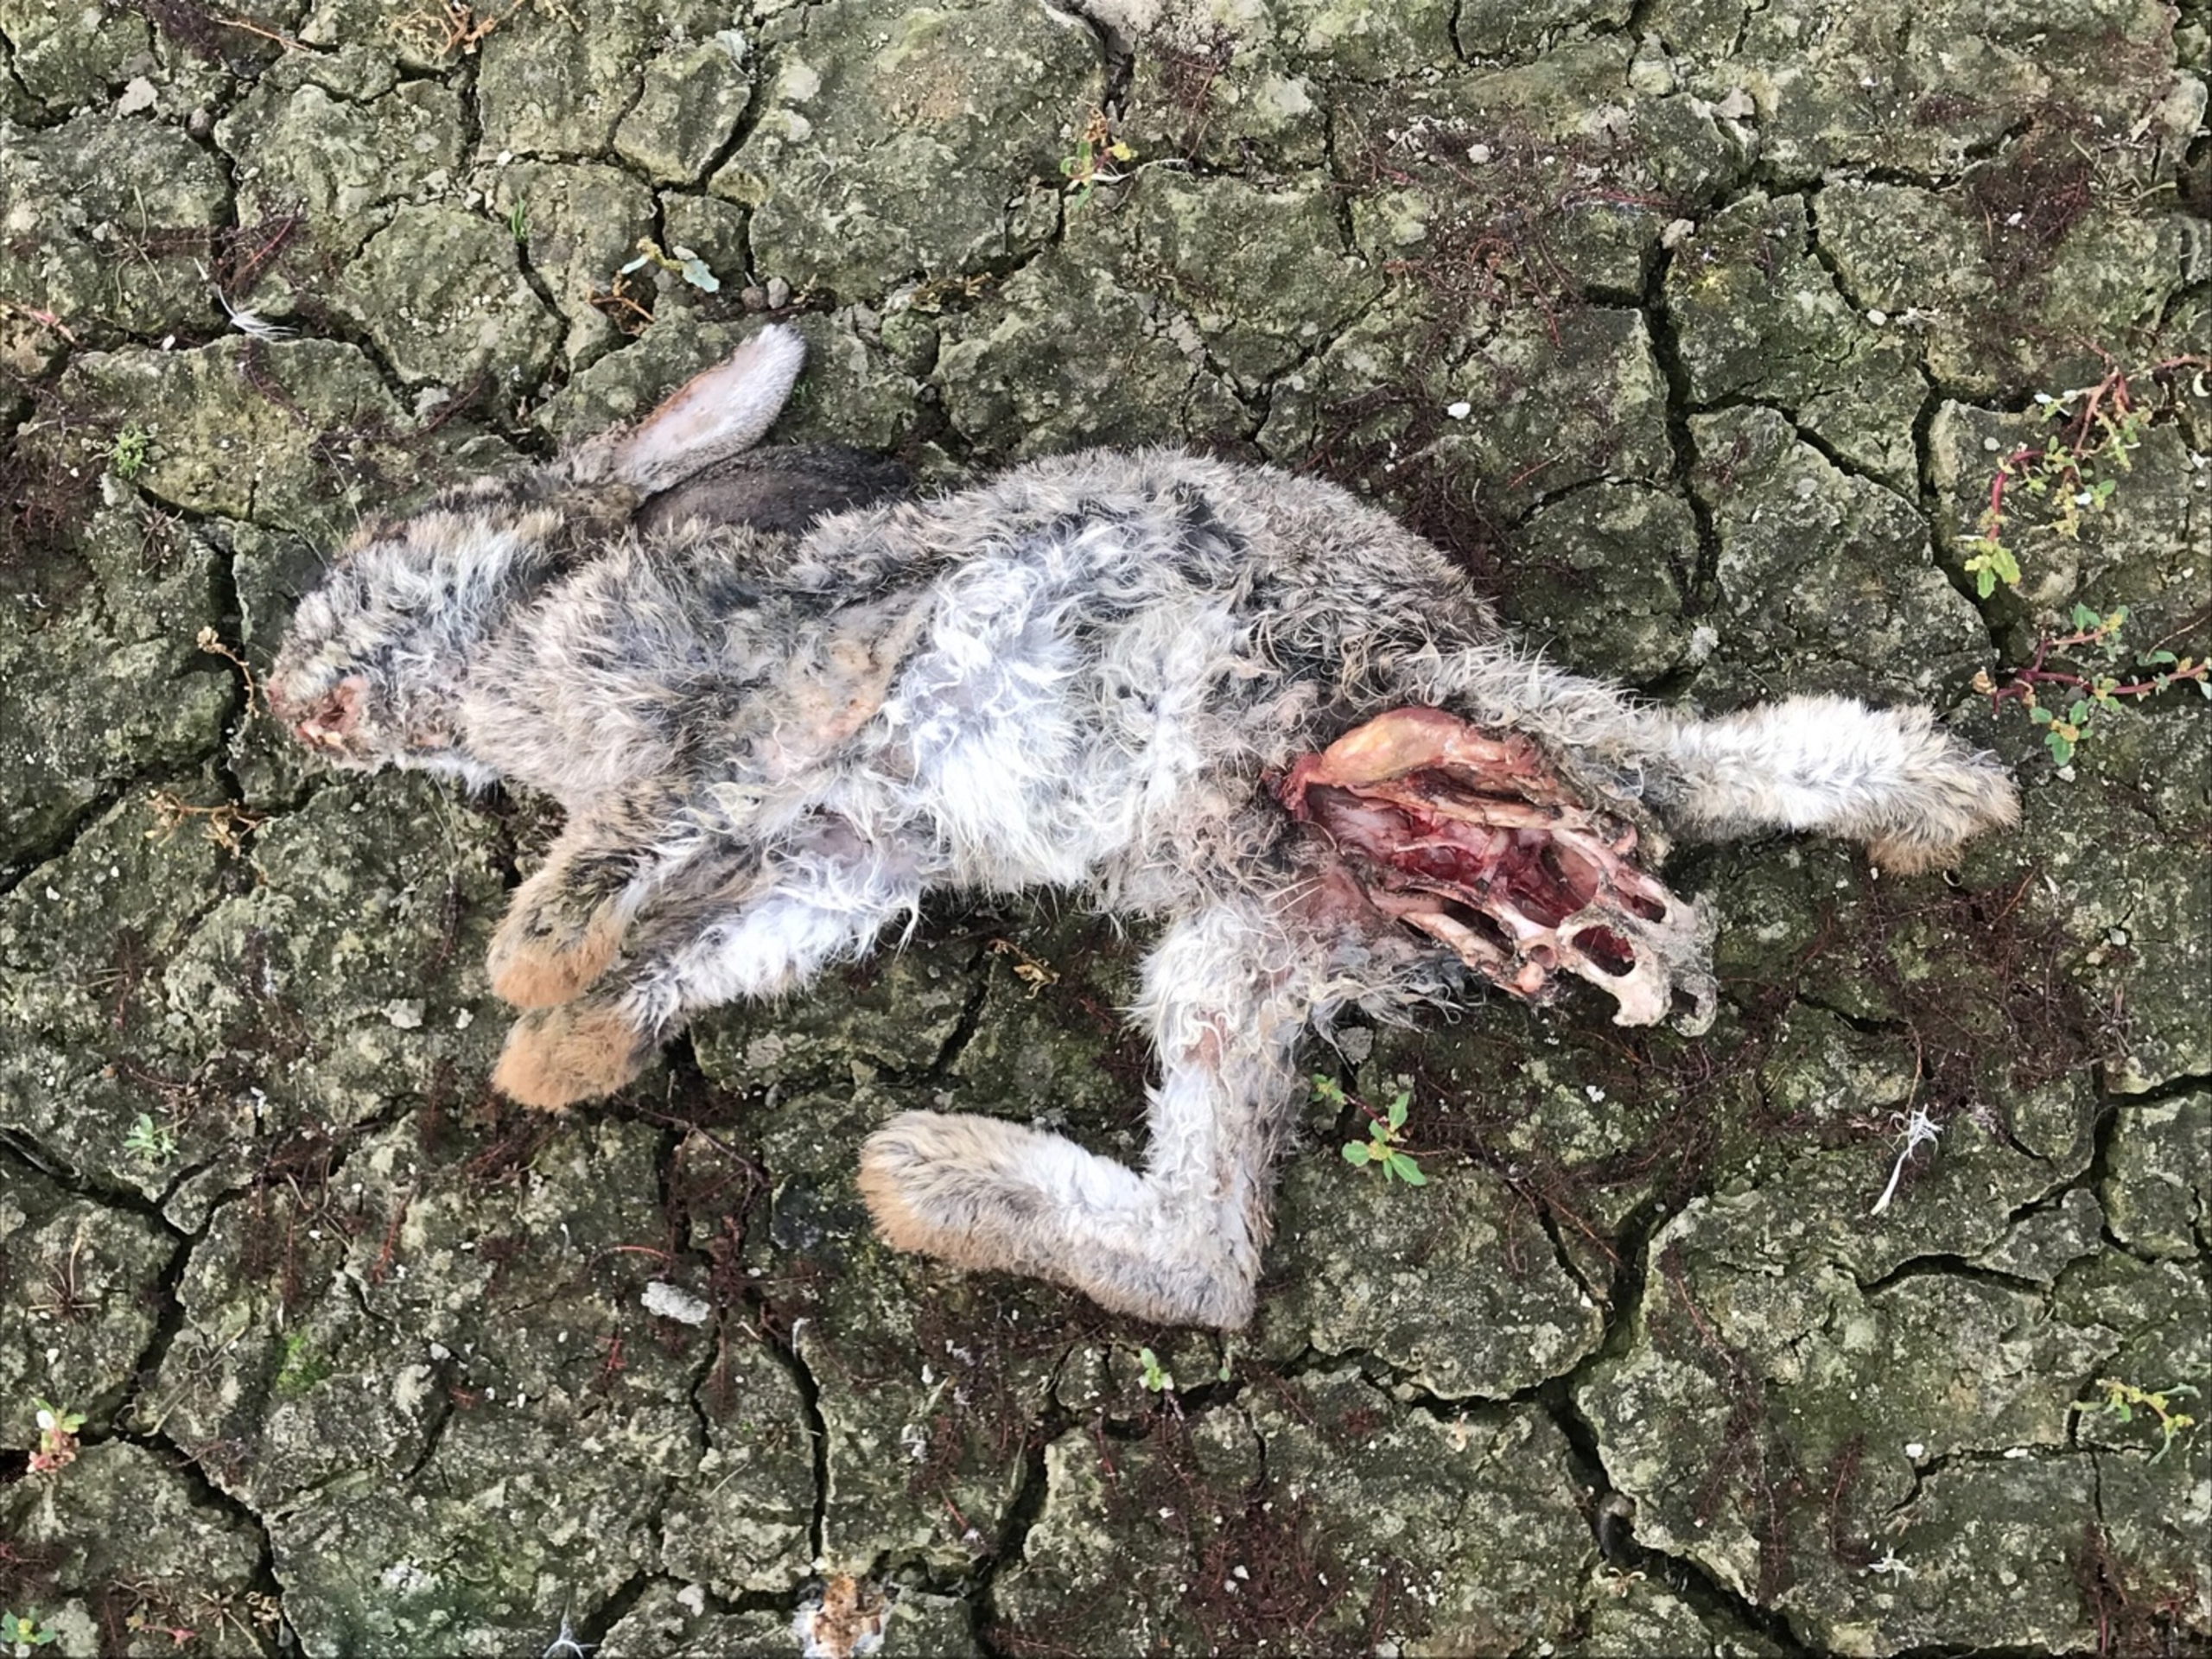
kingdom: Animalia
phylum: Chordata
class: Mammalia
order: Lagomorpha
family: Leporidae
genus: Oryctolagus
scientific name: Oryctolagus cuniculus
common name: Vildkanin
